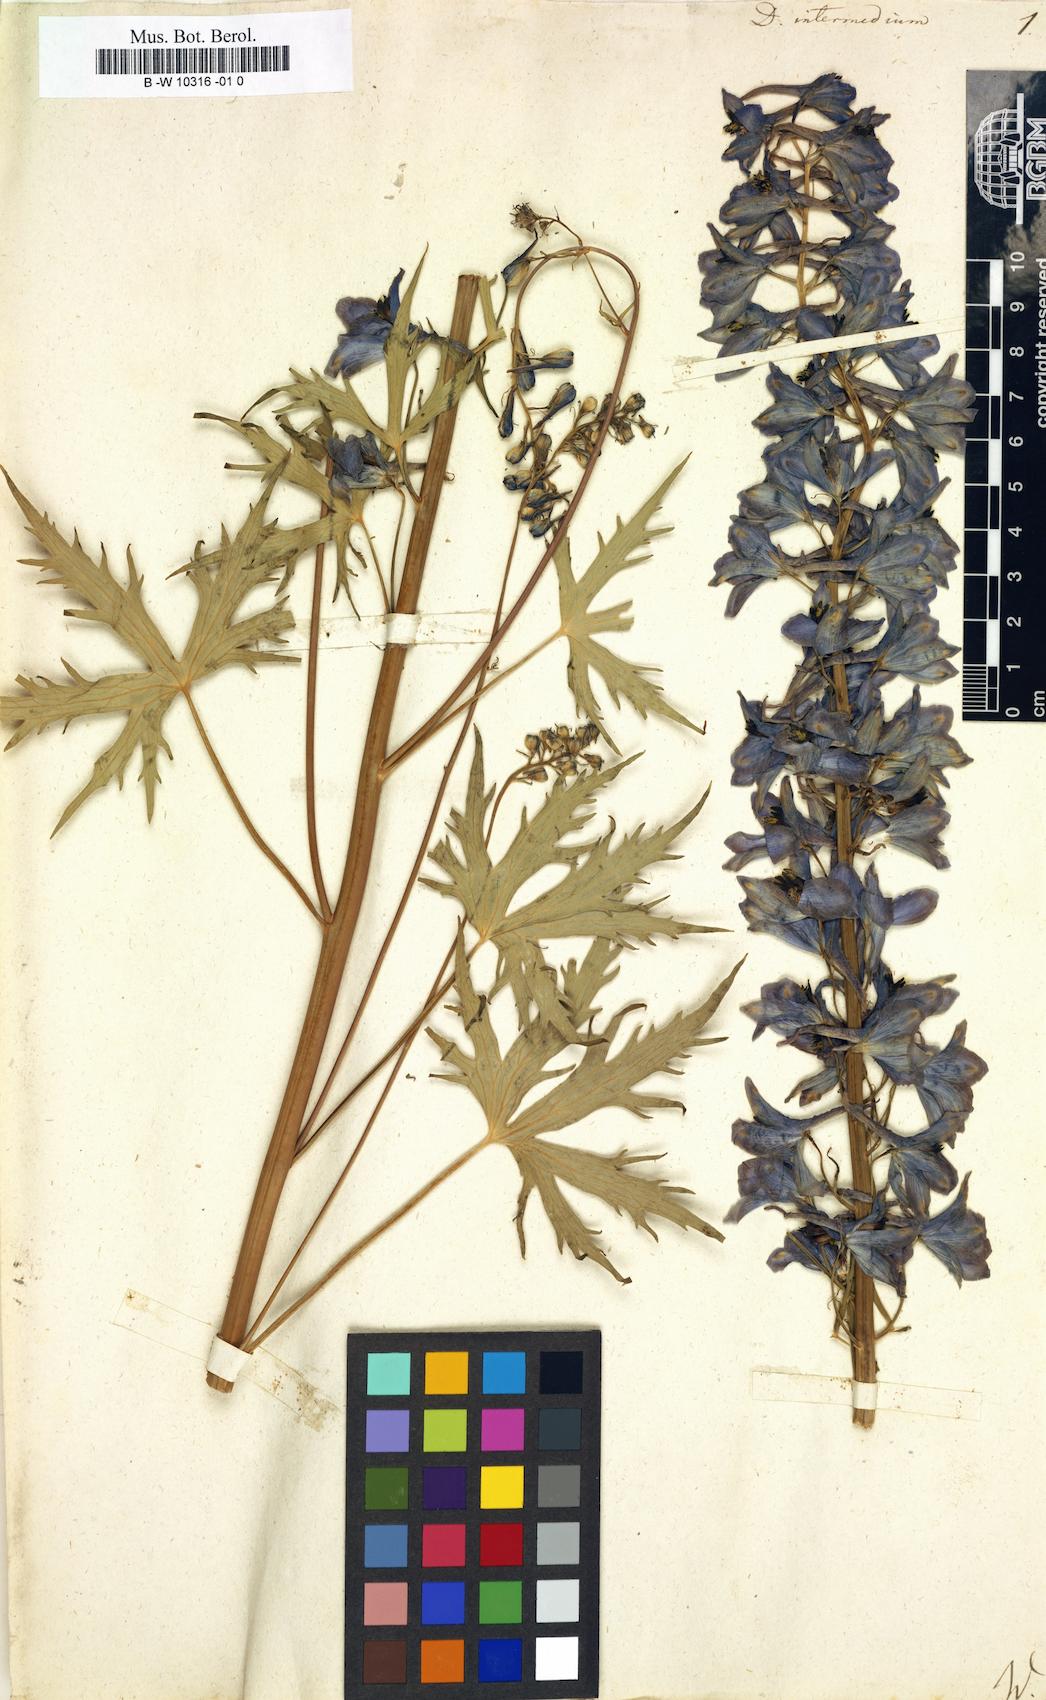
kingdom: Plantae
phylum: Tracheophyta
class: Magnoliopsida
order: Ranunculales
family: Ranunculaceae
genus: Delphinium
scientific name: Delphinium elatum
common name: Candle larkspur
